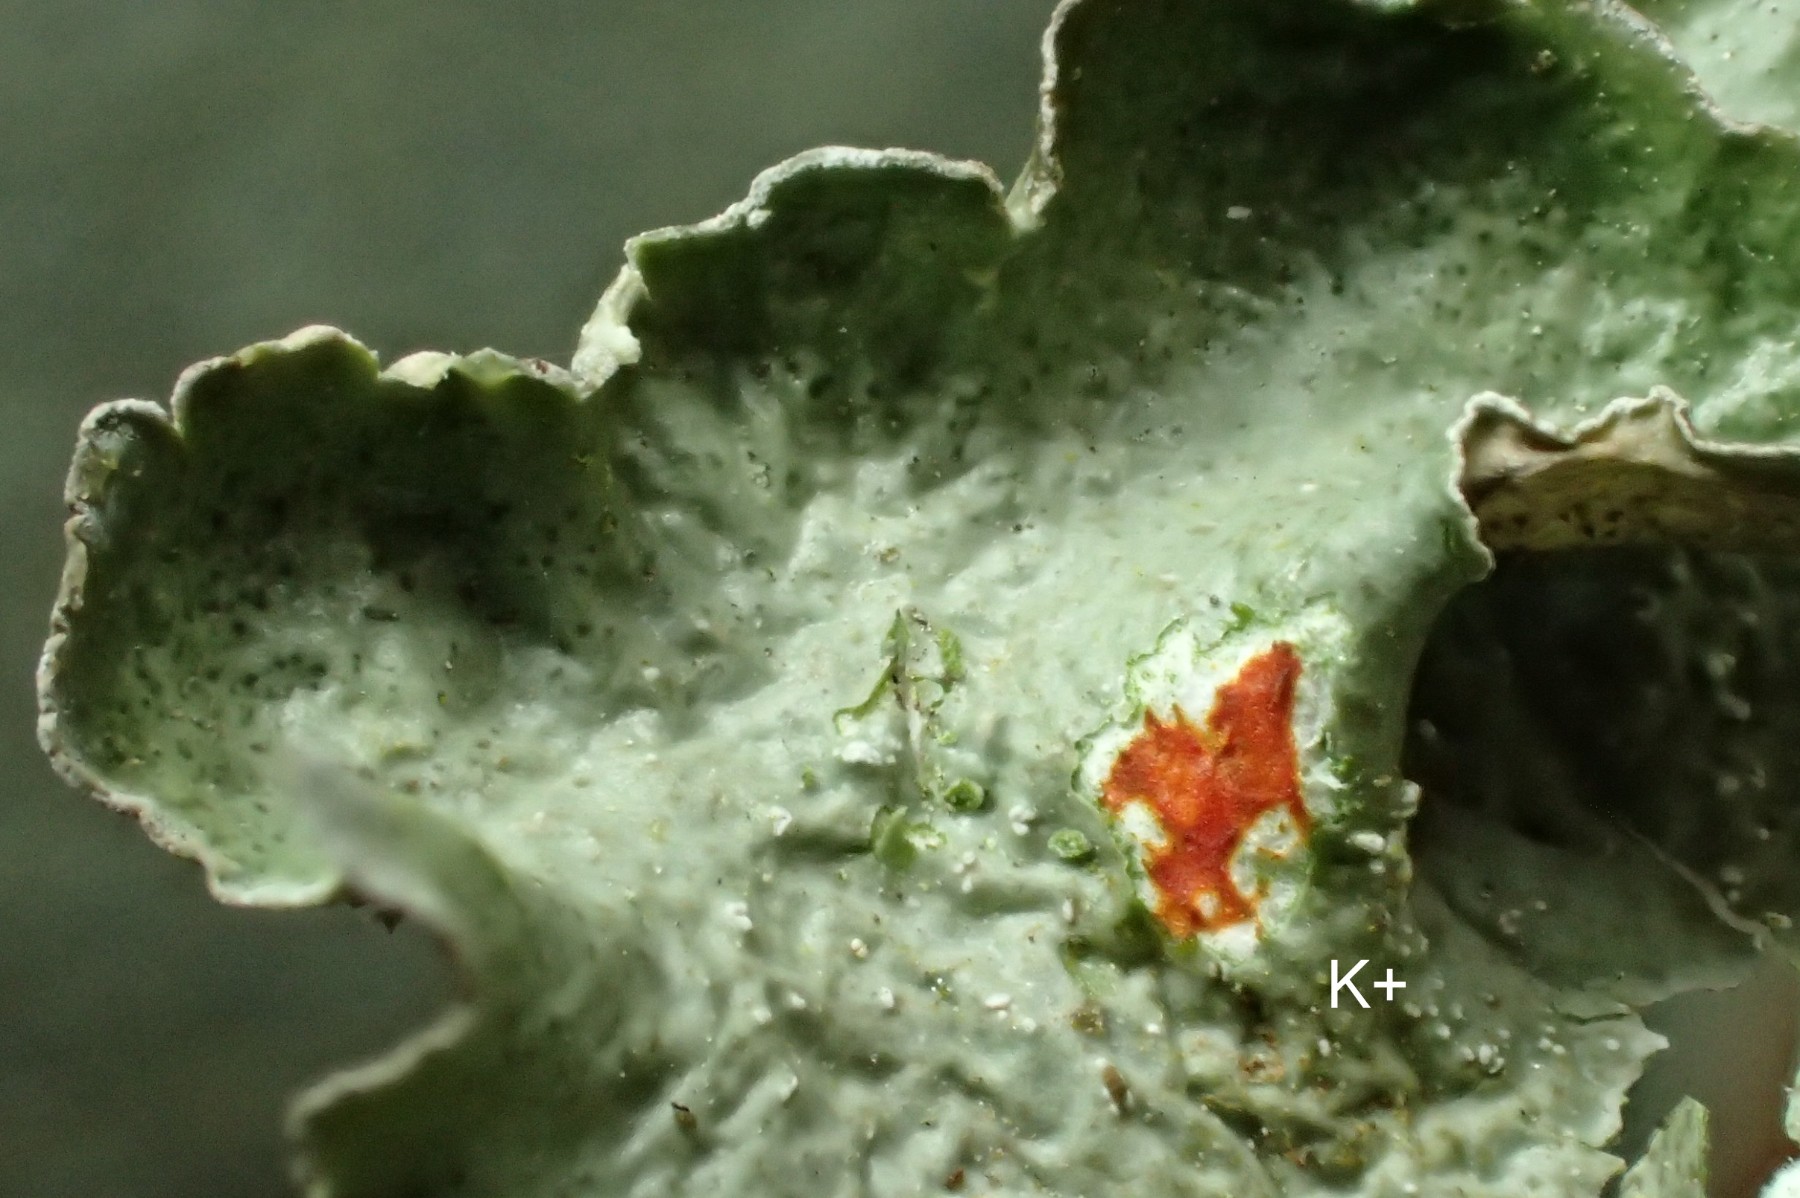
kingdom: Fungi
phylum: Ascomycota
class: Lecanoromycetes
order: Lecanorales
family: Parmeliaceae
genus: Pleurosticta
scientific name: Pleurosticta acetabulum
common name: stor skållav
